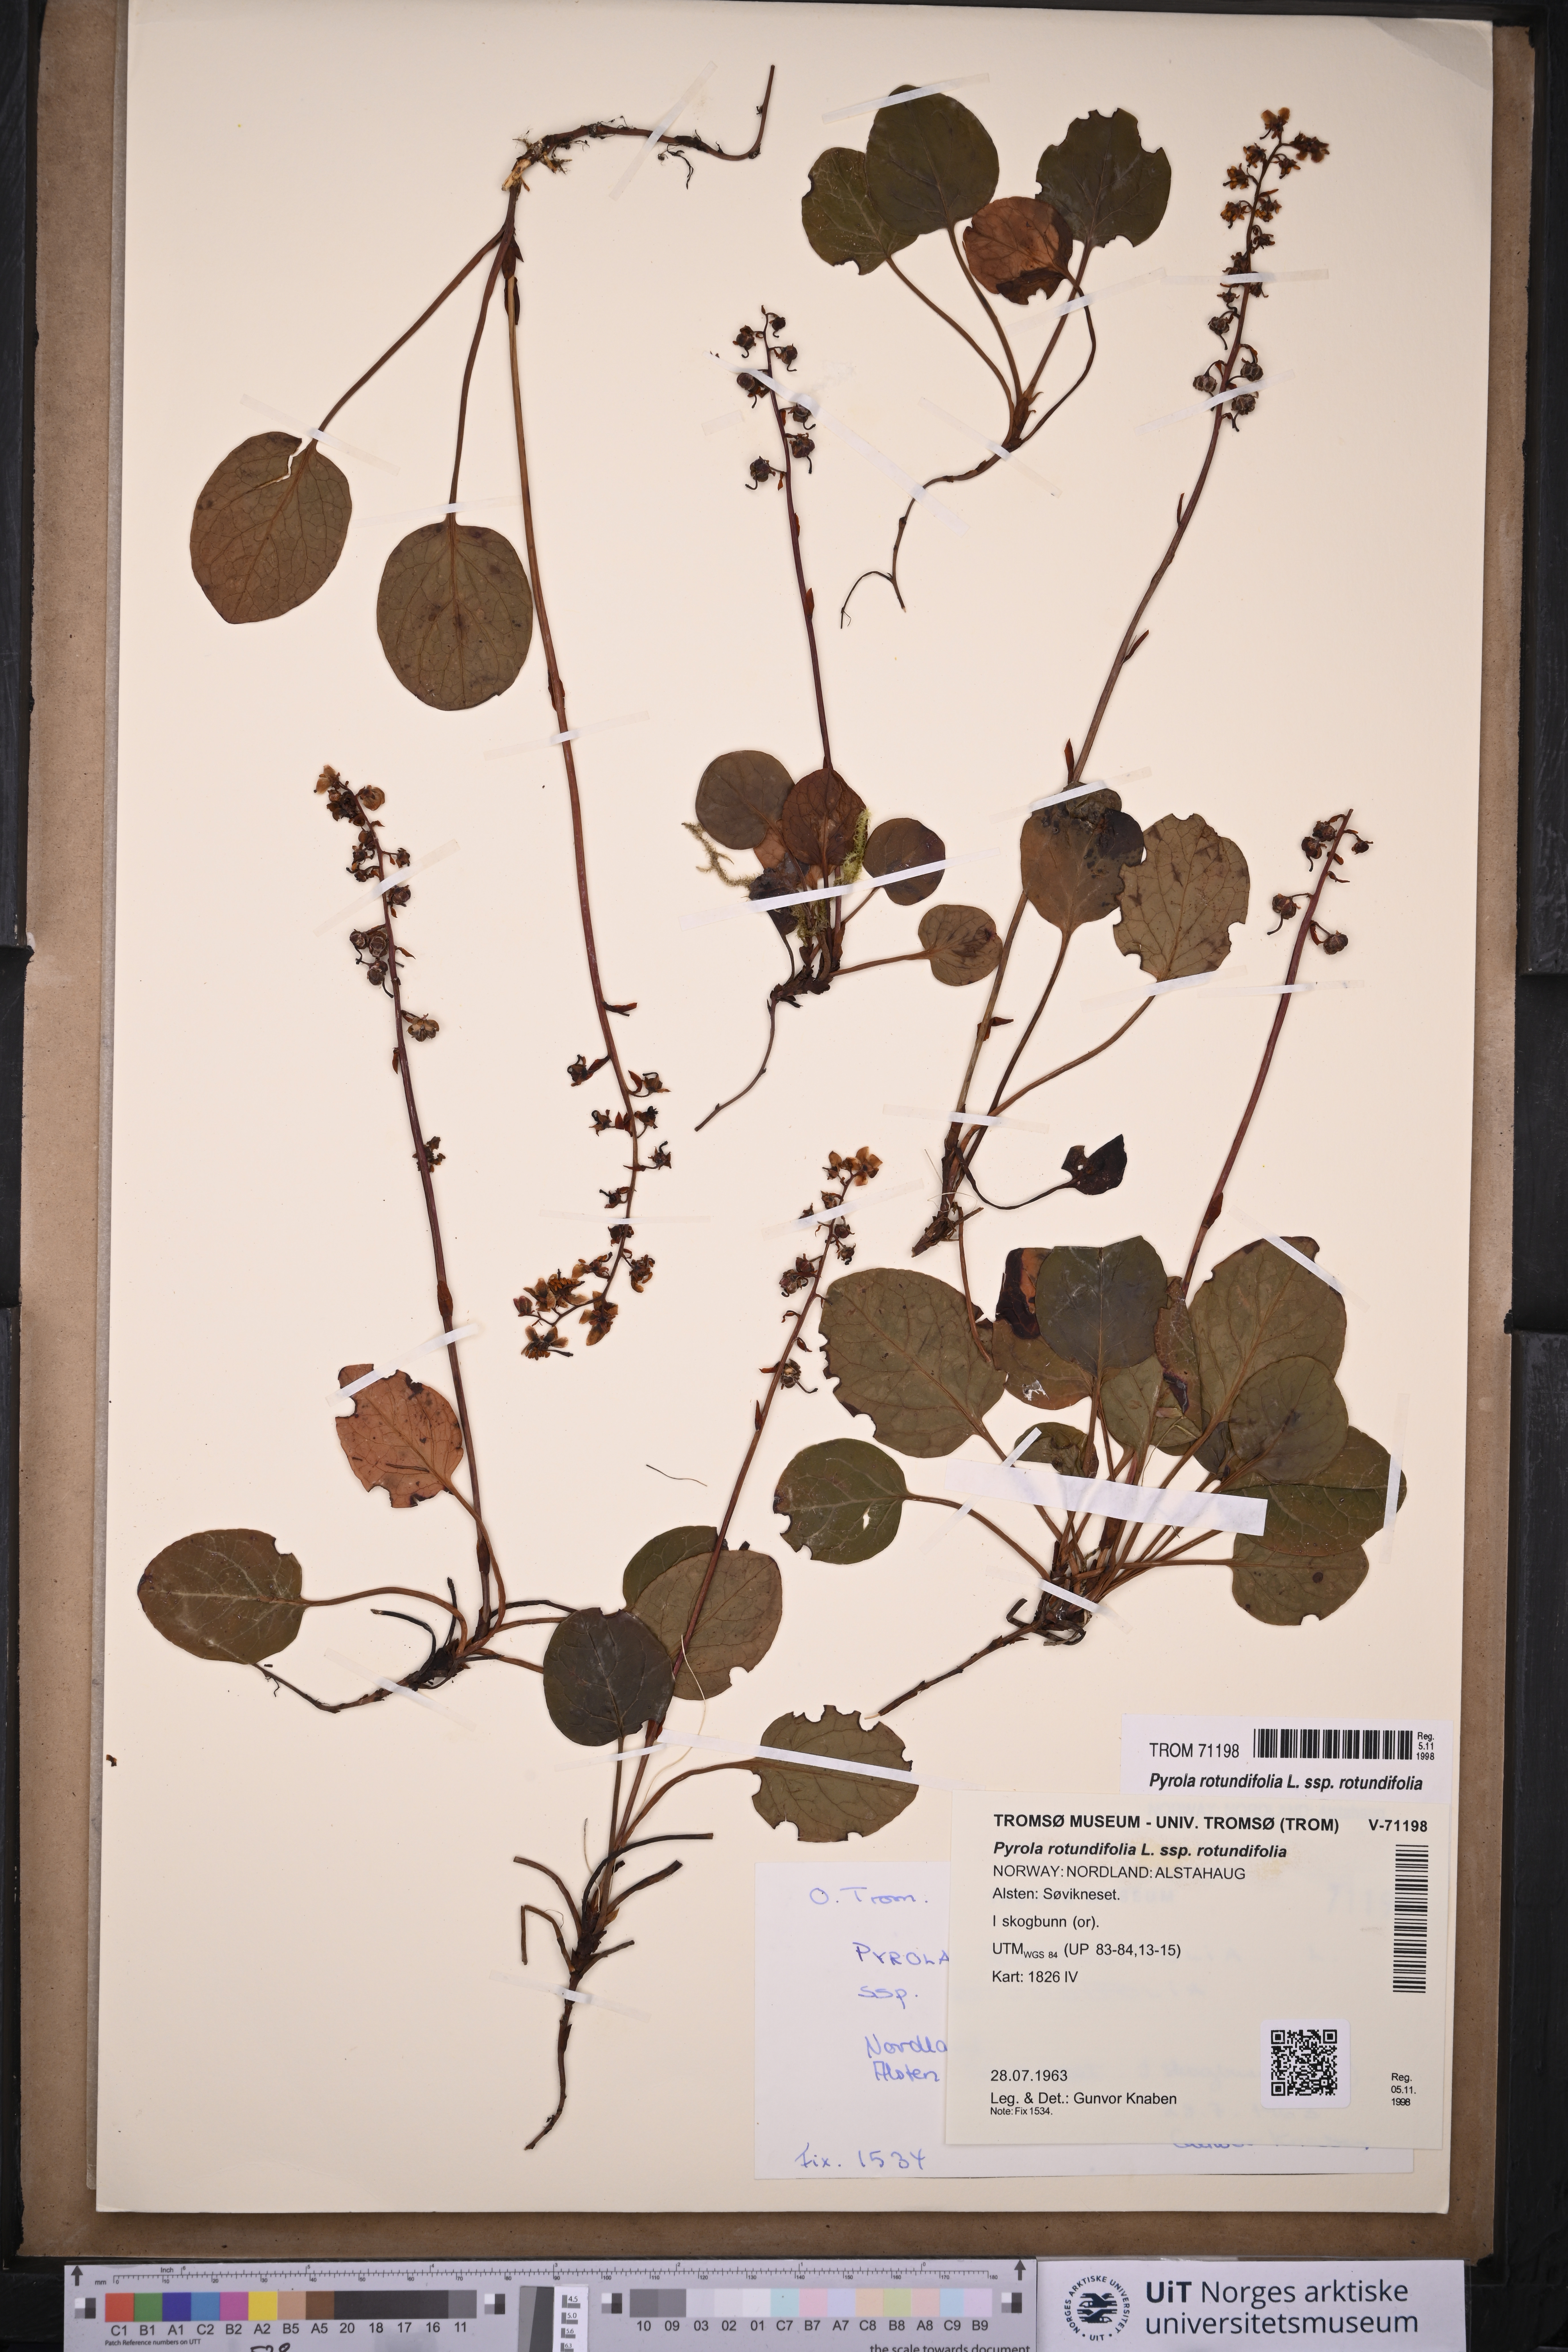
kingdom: Plantae
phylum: Tracheophyta
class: Magnoliopsida
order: Ericales
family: Ericaceae
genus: Pyrola
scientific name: Pyrola rotundifolia
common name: Round-leaved wintergreen
